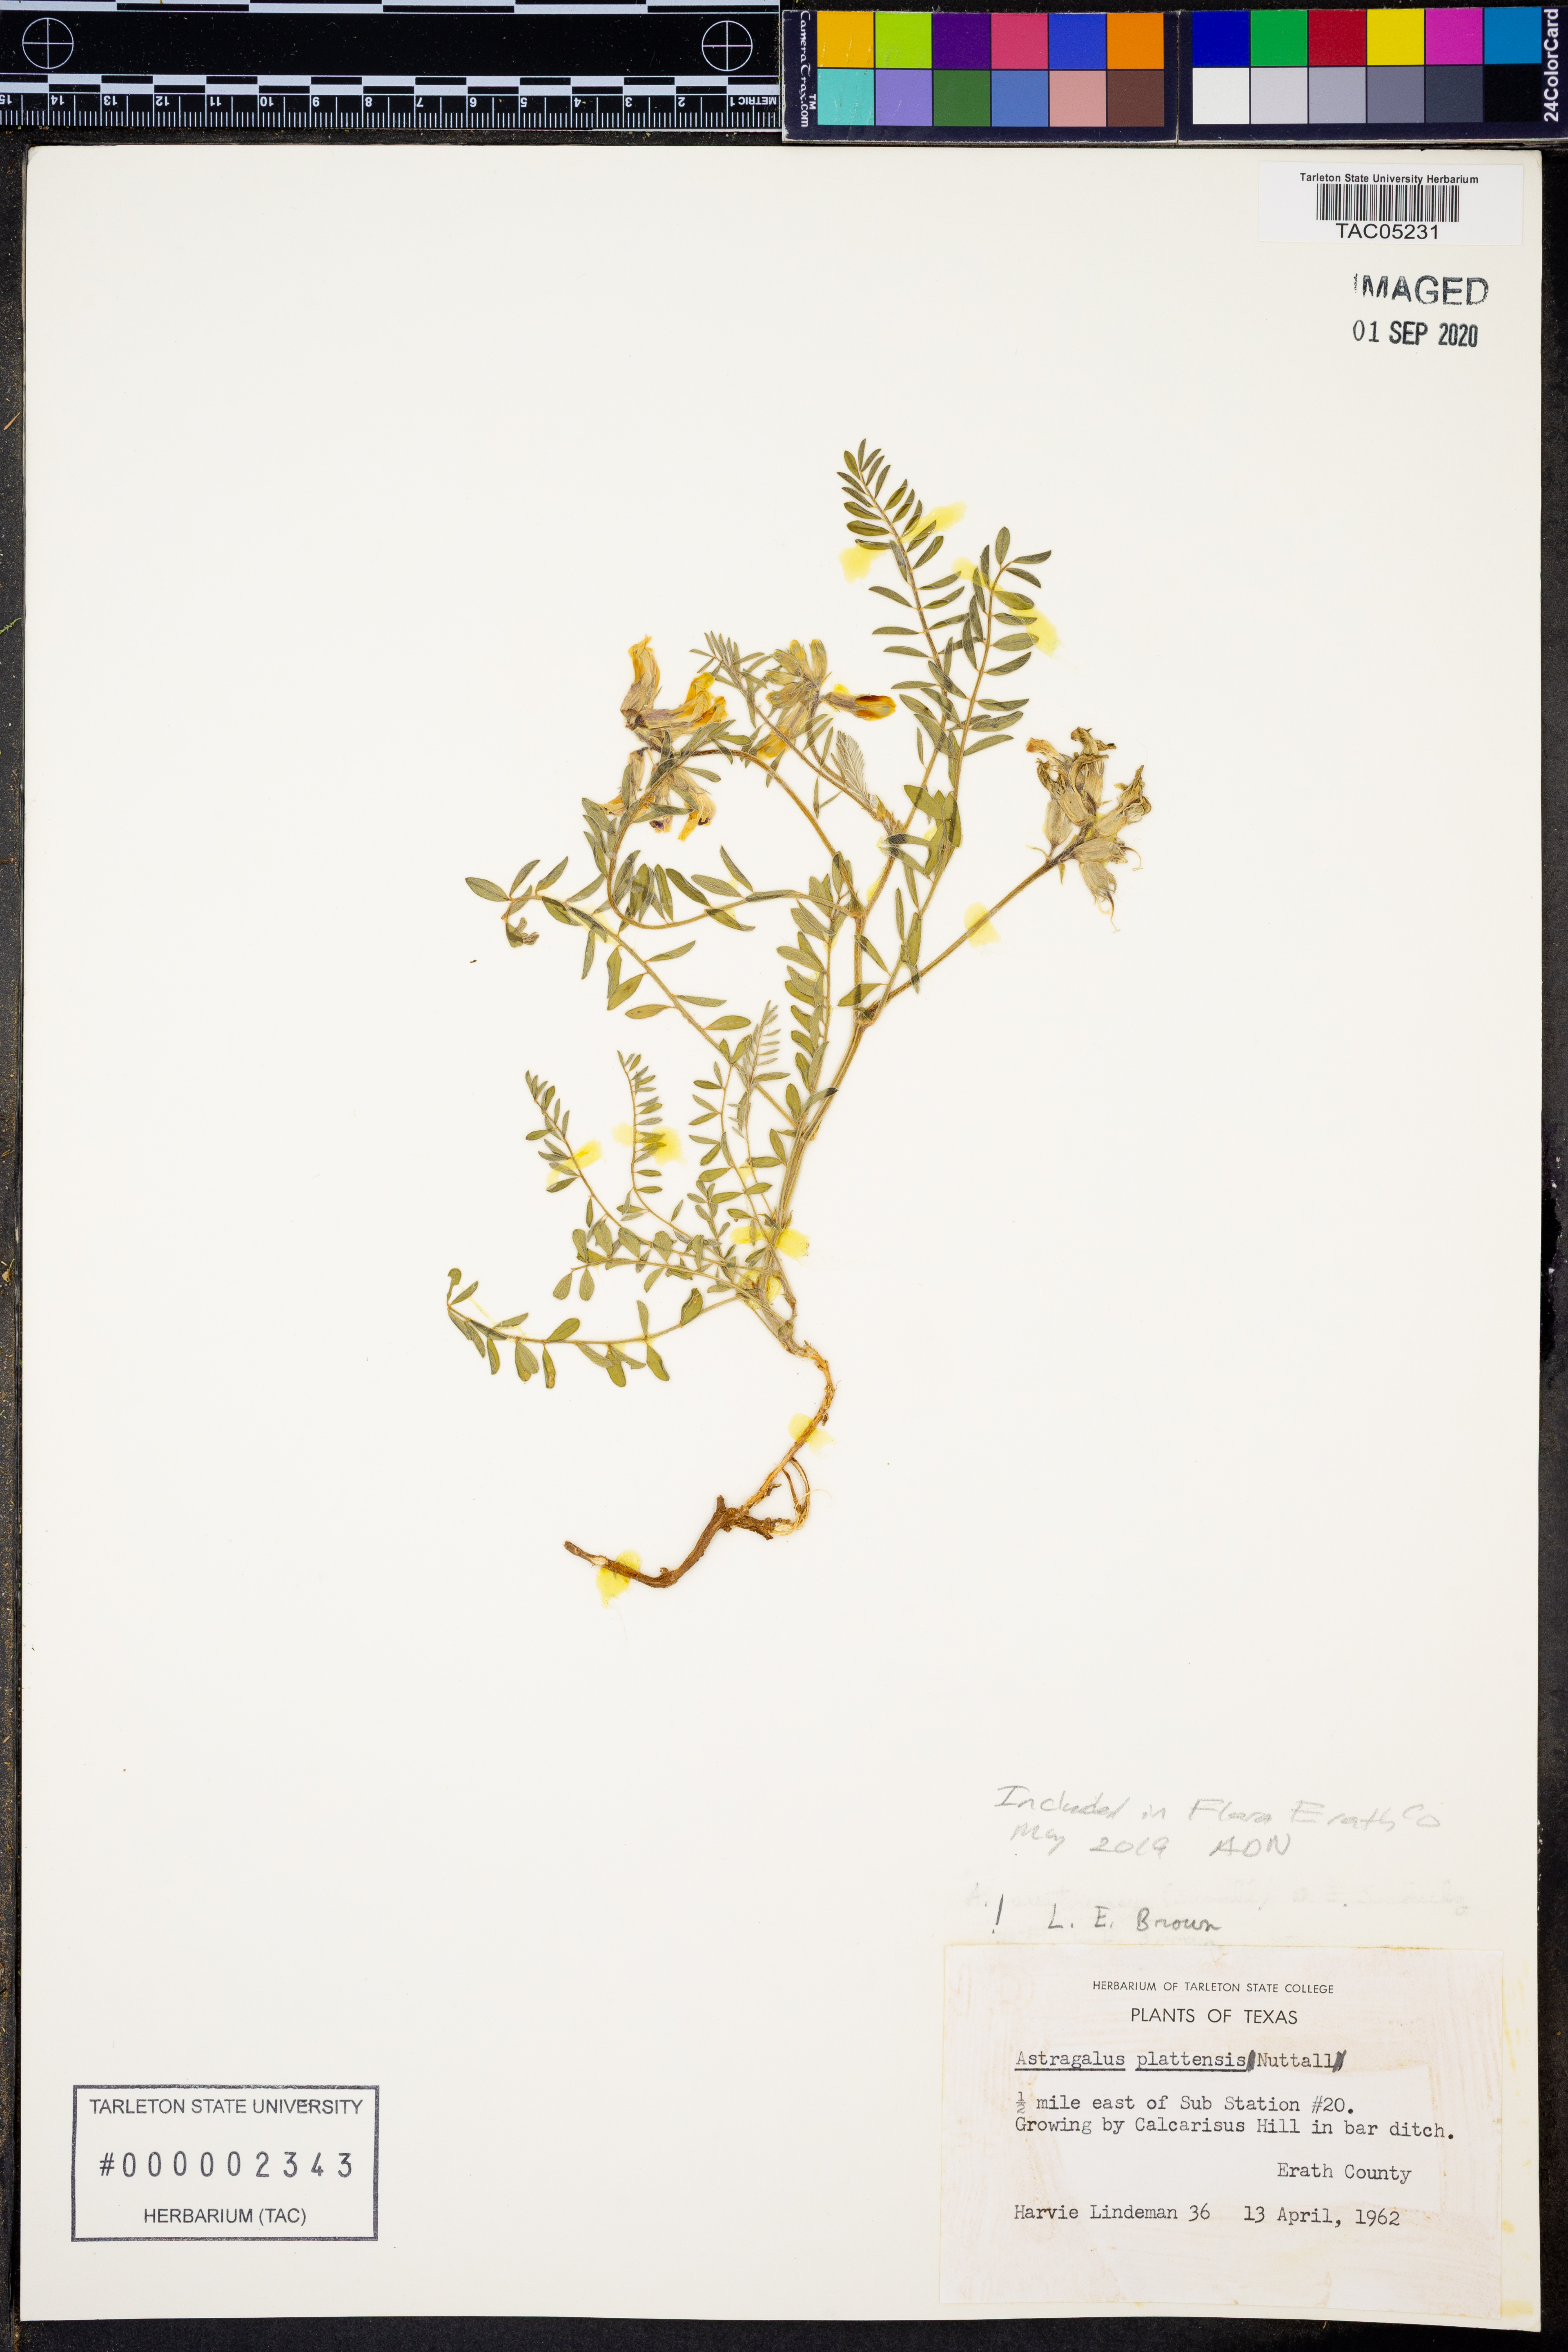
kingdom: Plantae
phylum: Tracheophyta
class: Magnoliopsida
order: Fabales
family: Fabaceae
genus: Astragalus
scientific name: Astragalus plattensis
